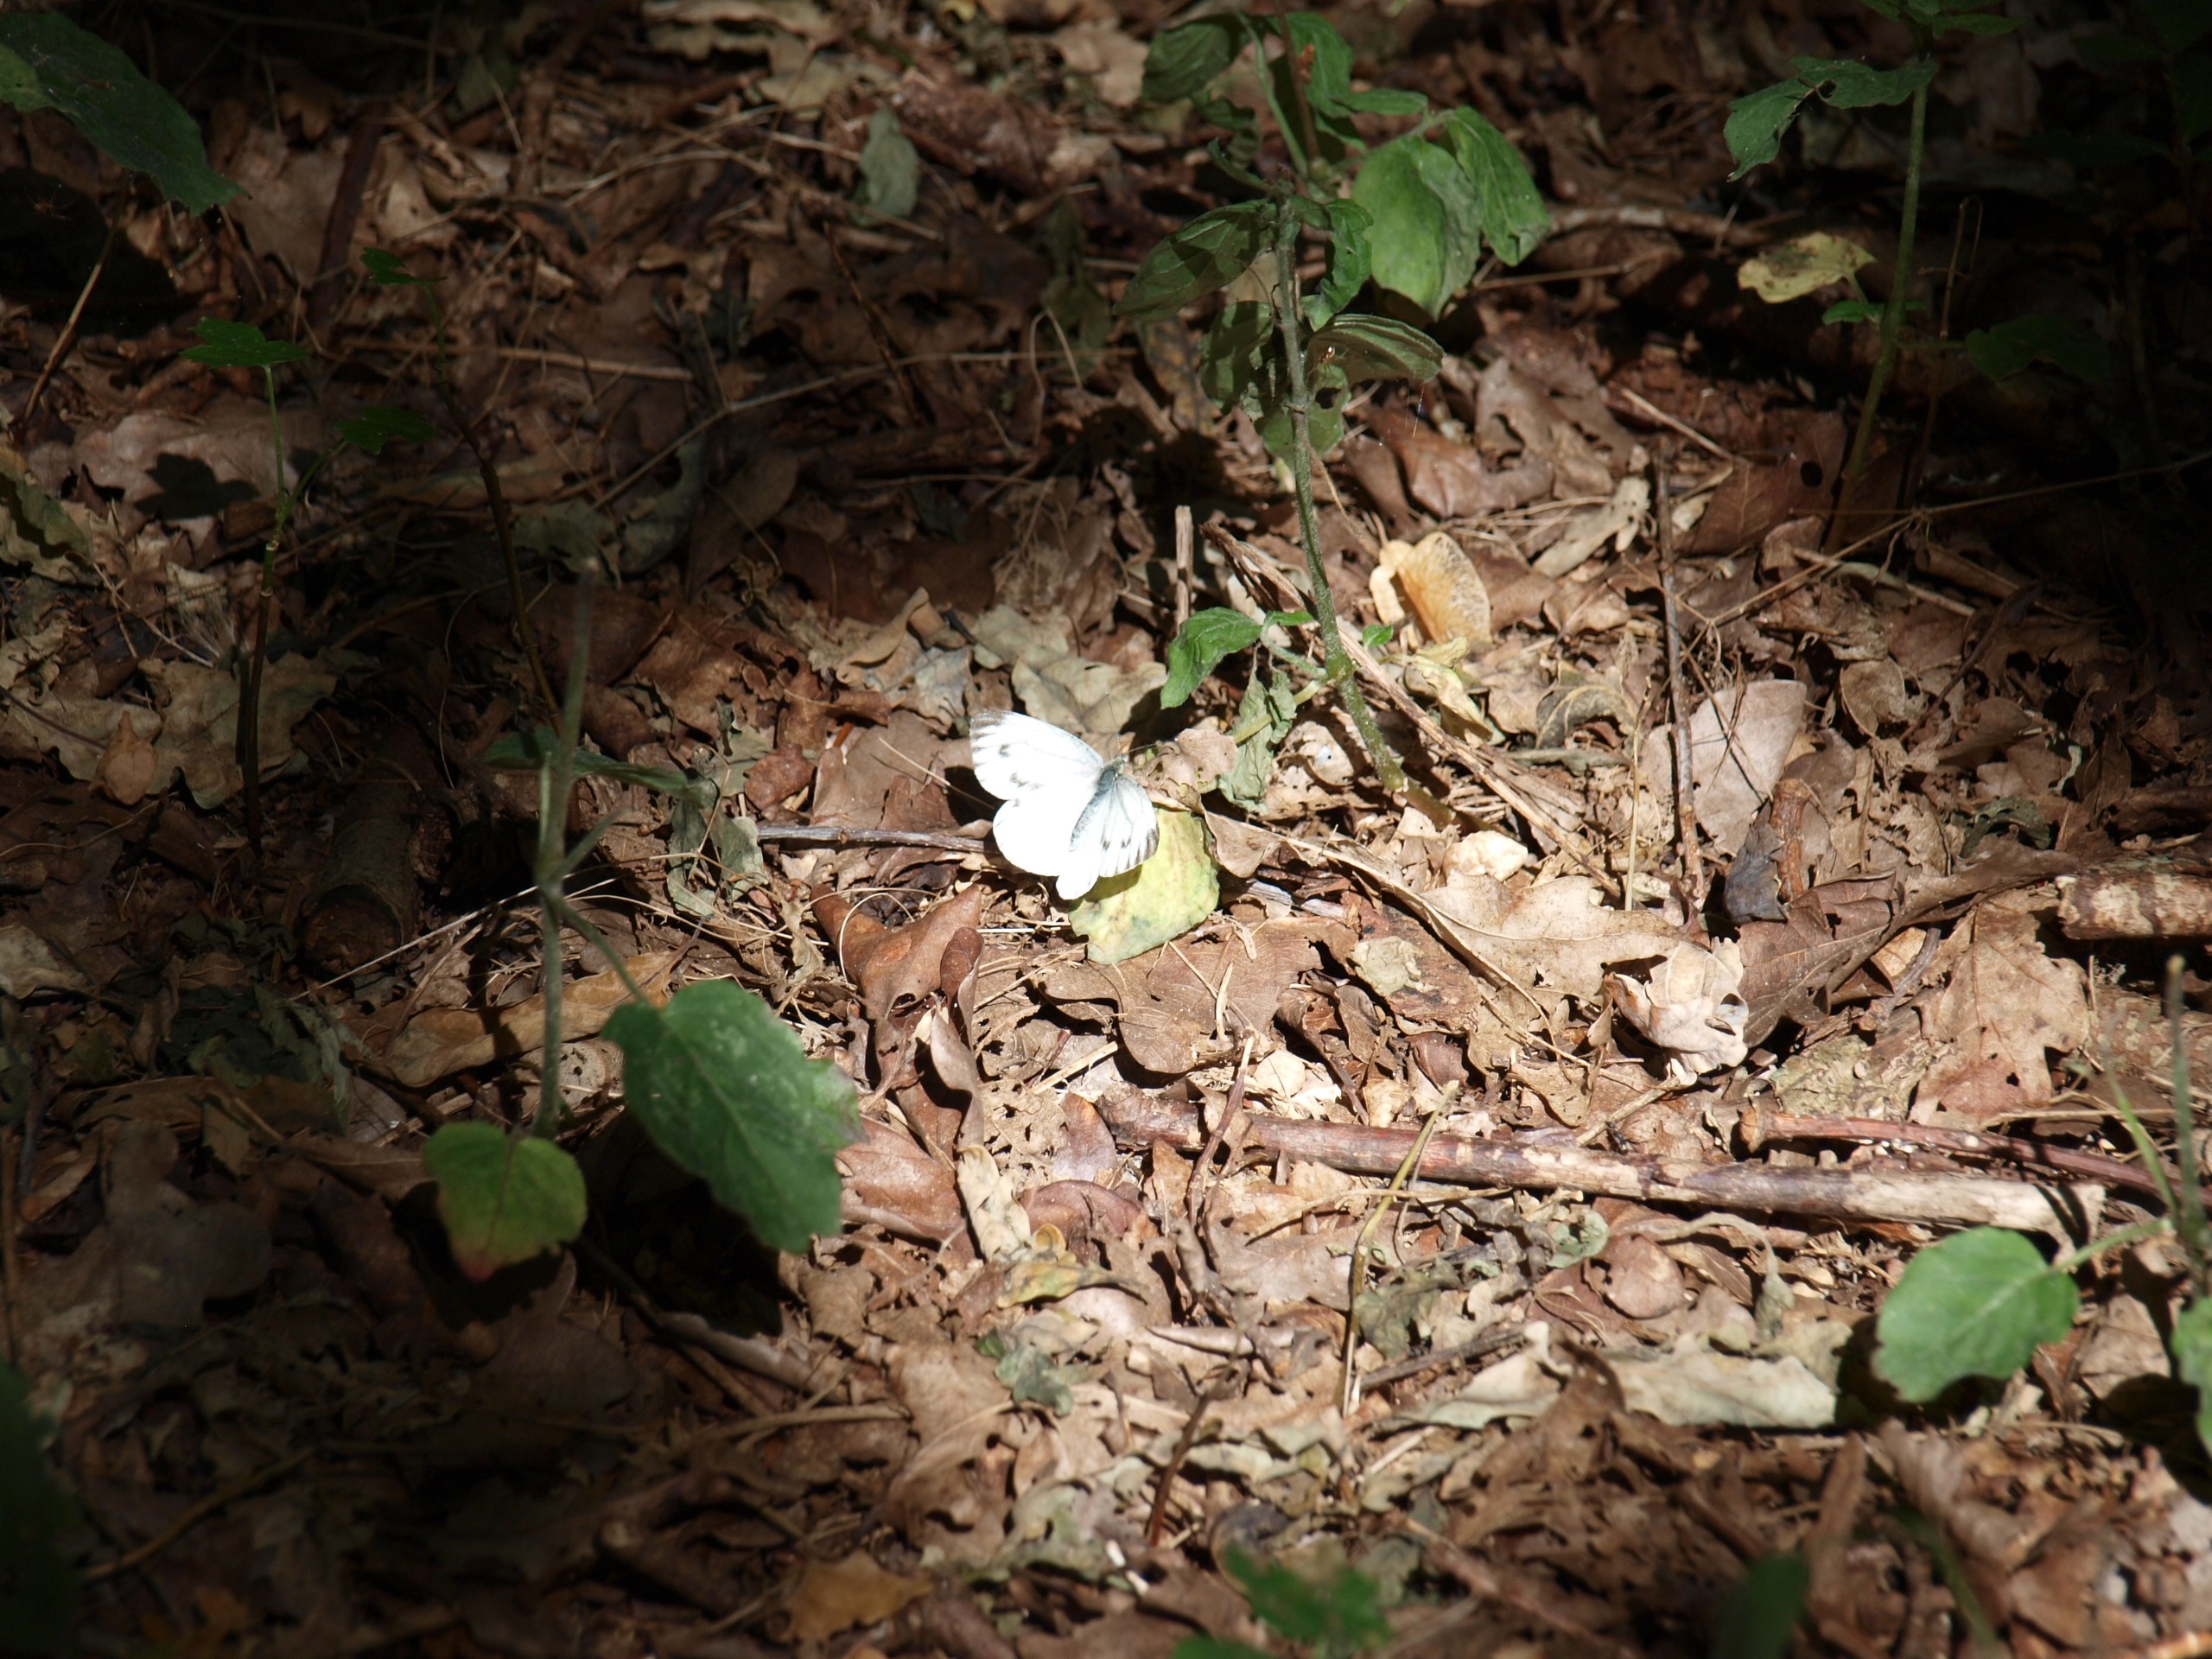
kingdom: Animalia
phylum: Arthropoda
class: Insecta
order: Lepidoptera
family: Pieridae
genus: Pieris
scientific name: Pieris napi
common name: Grønåret kålsommerfugl
